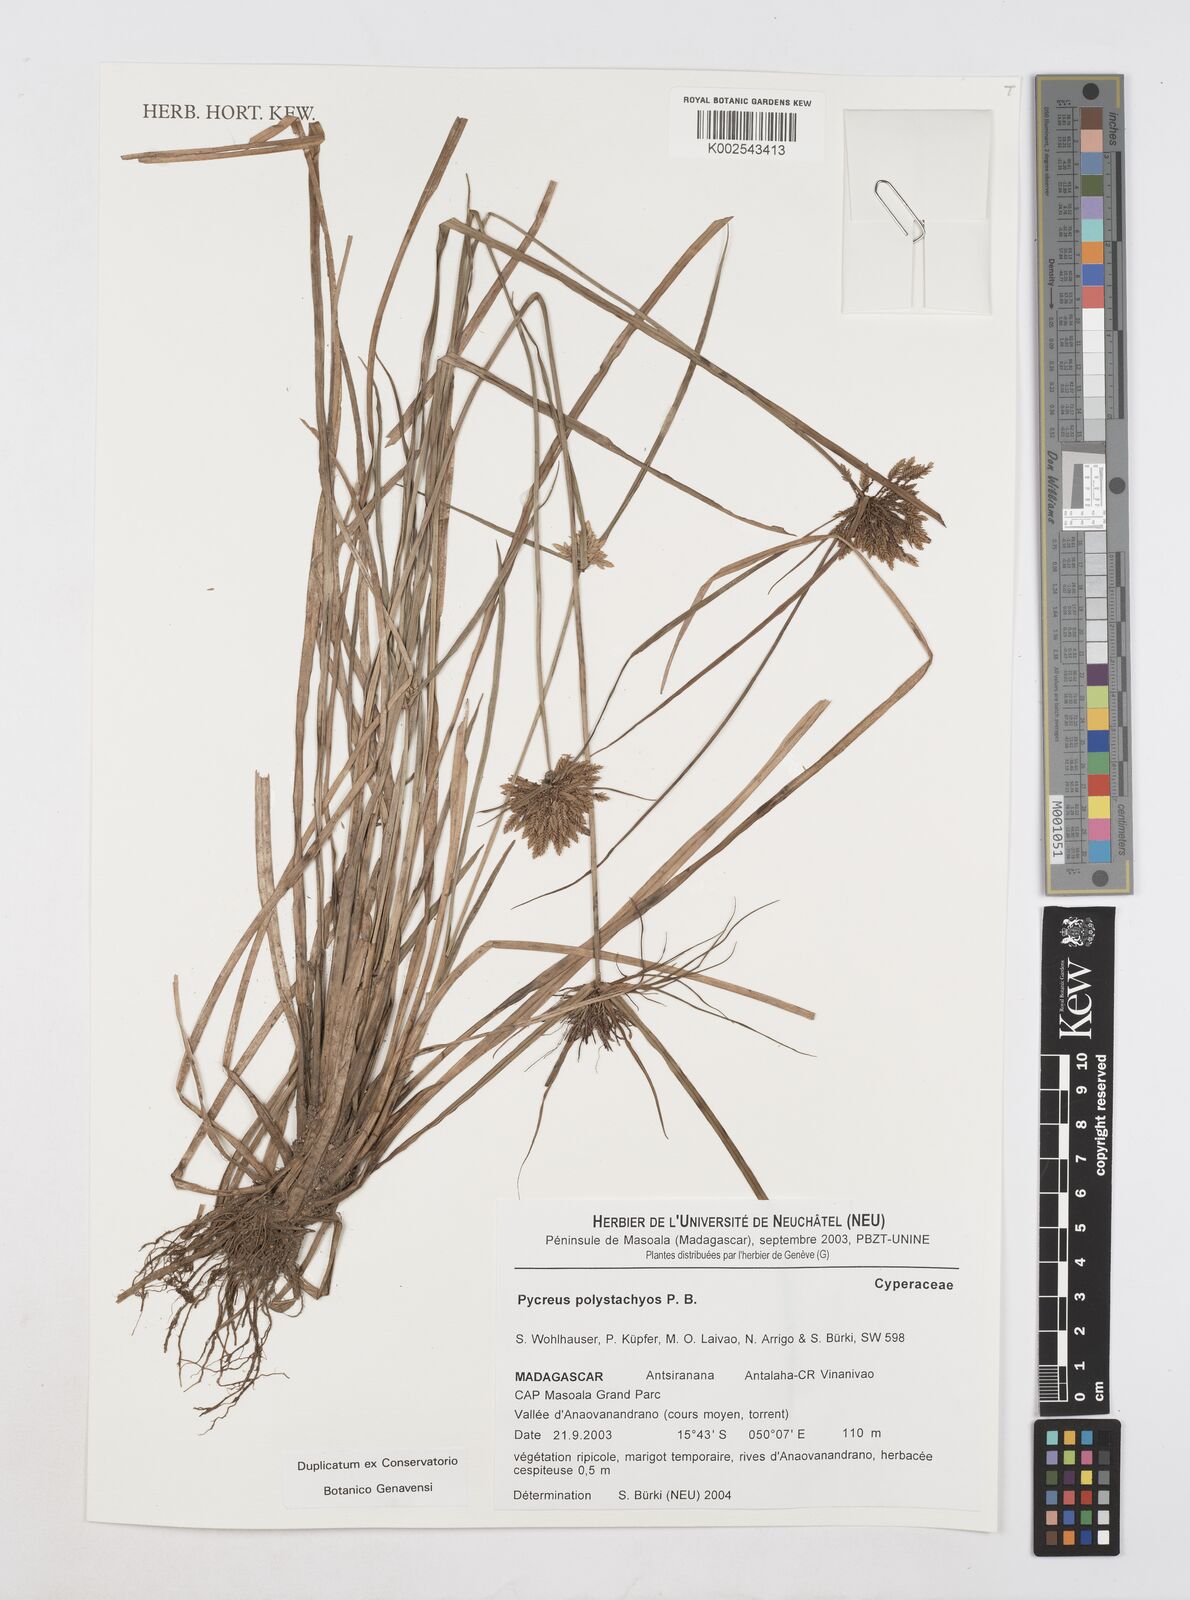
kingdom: Plantae
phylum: Tracheophyta
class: Liliopsida
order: Poales
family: Cyperaceae
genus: Cyperus
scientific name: Cyperus polystachyos
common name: Bunchy flat sedge
